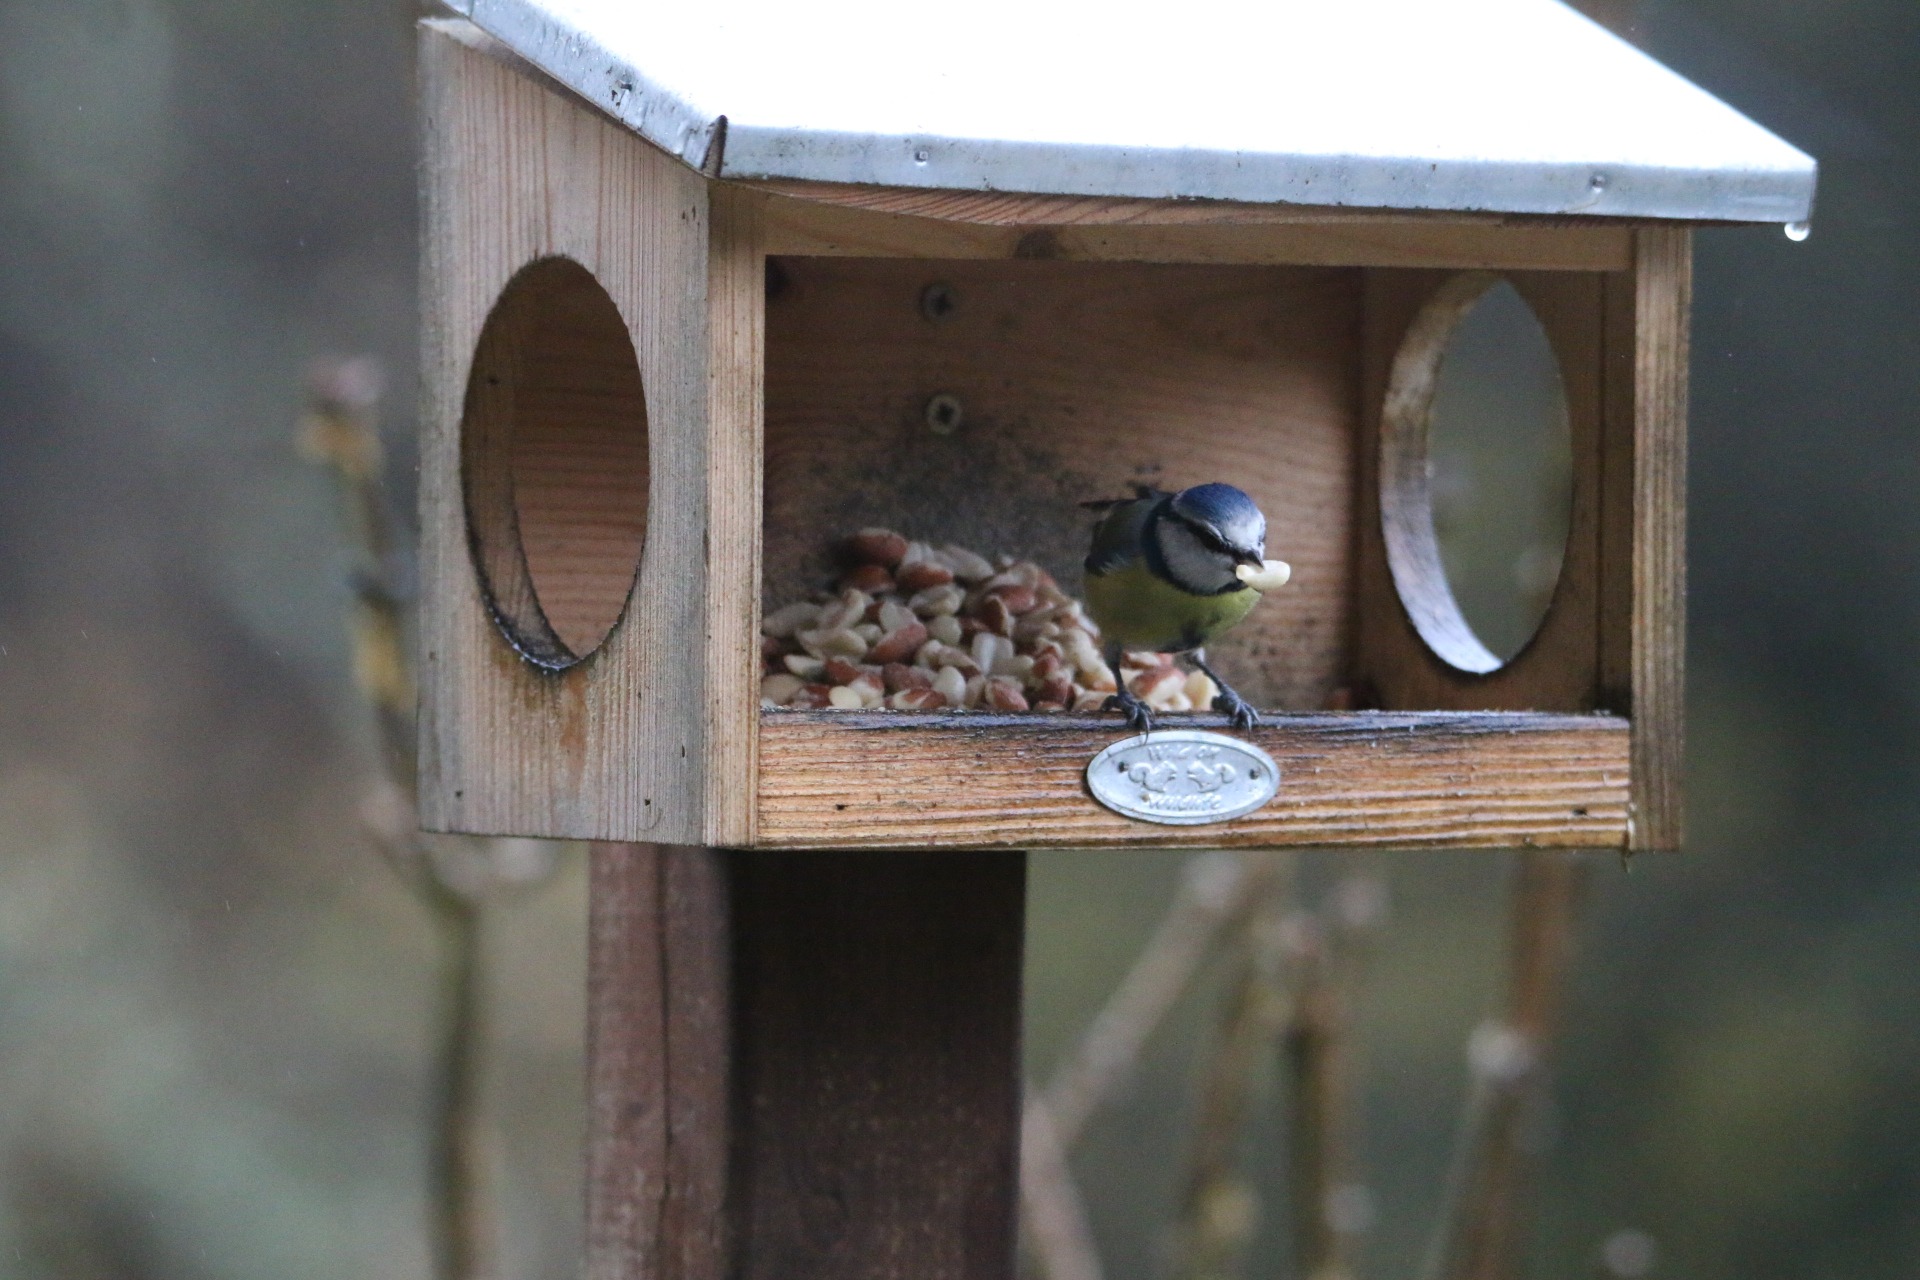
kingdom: Animalia
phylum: Chordata
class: Aves
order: Passeriformes
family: Paridae
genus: Cyanistes
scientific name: Cyanistes caeruleus
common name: Blåmejse
